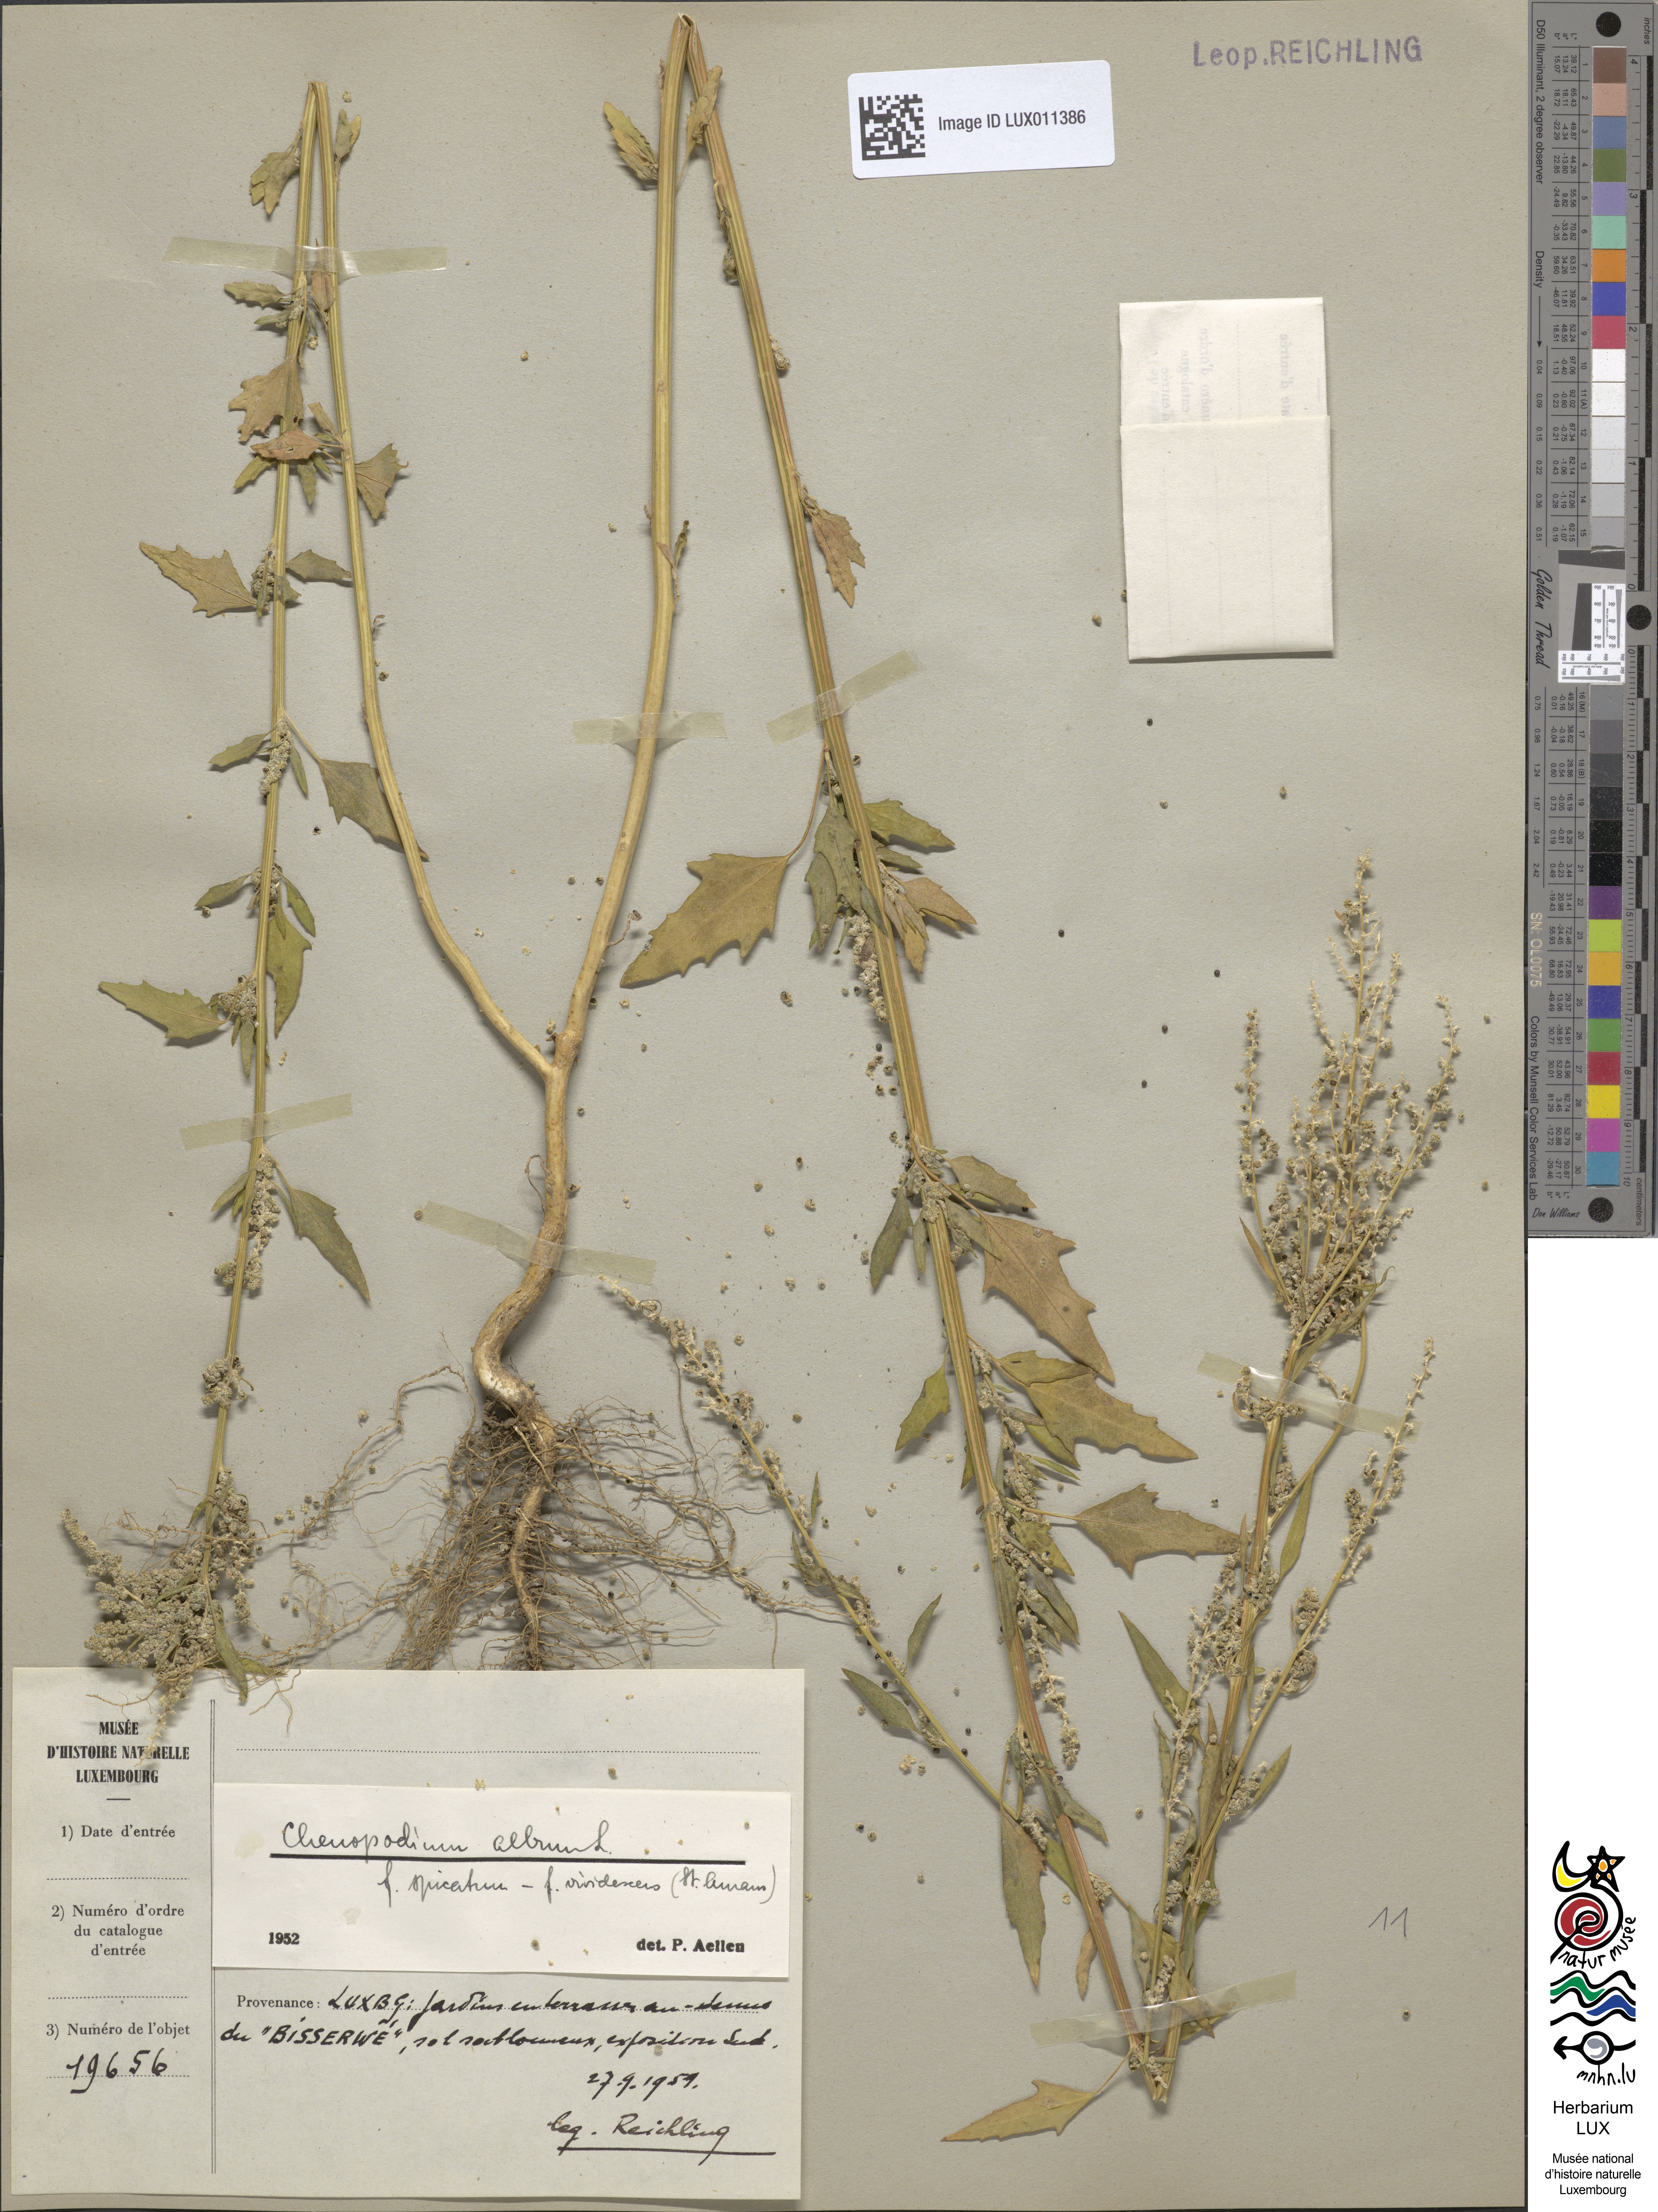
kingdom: Plantae
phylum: Tracheophyta
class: Magnoliopsida
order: Caryophyllales
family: Amaranthaceae
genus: Chenopodium
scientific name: Chenopodium album
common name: Fat-hen
